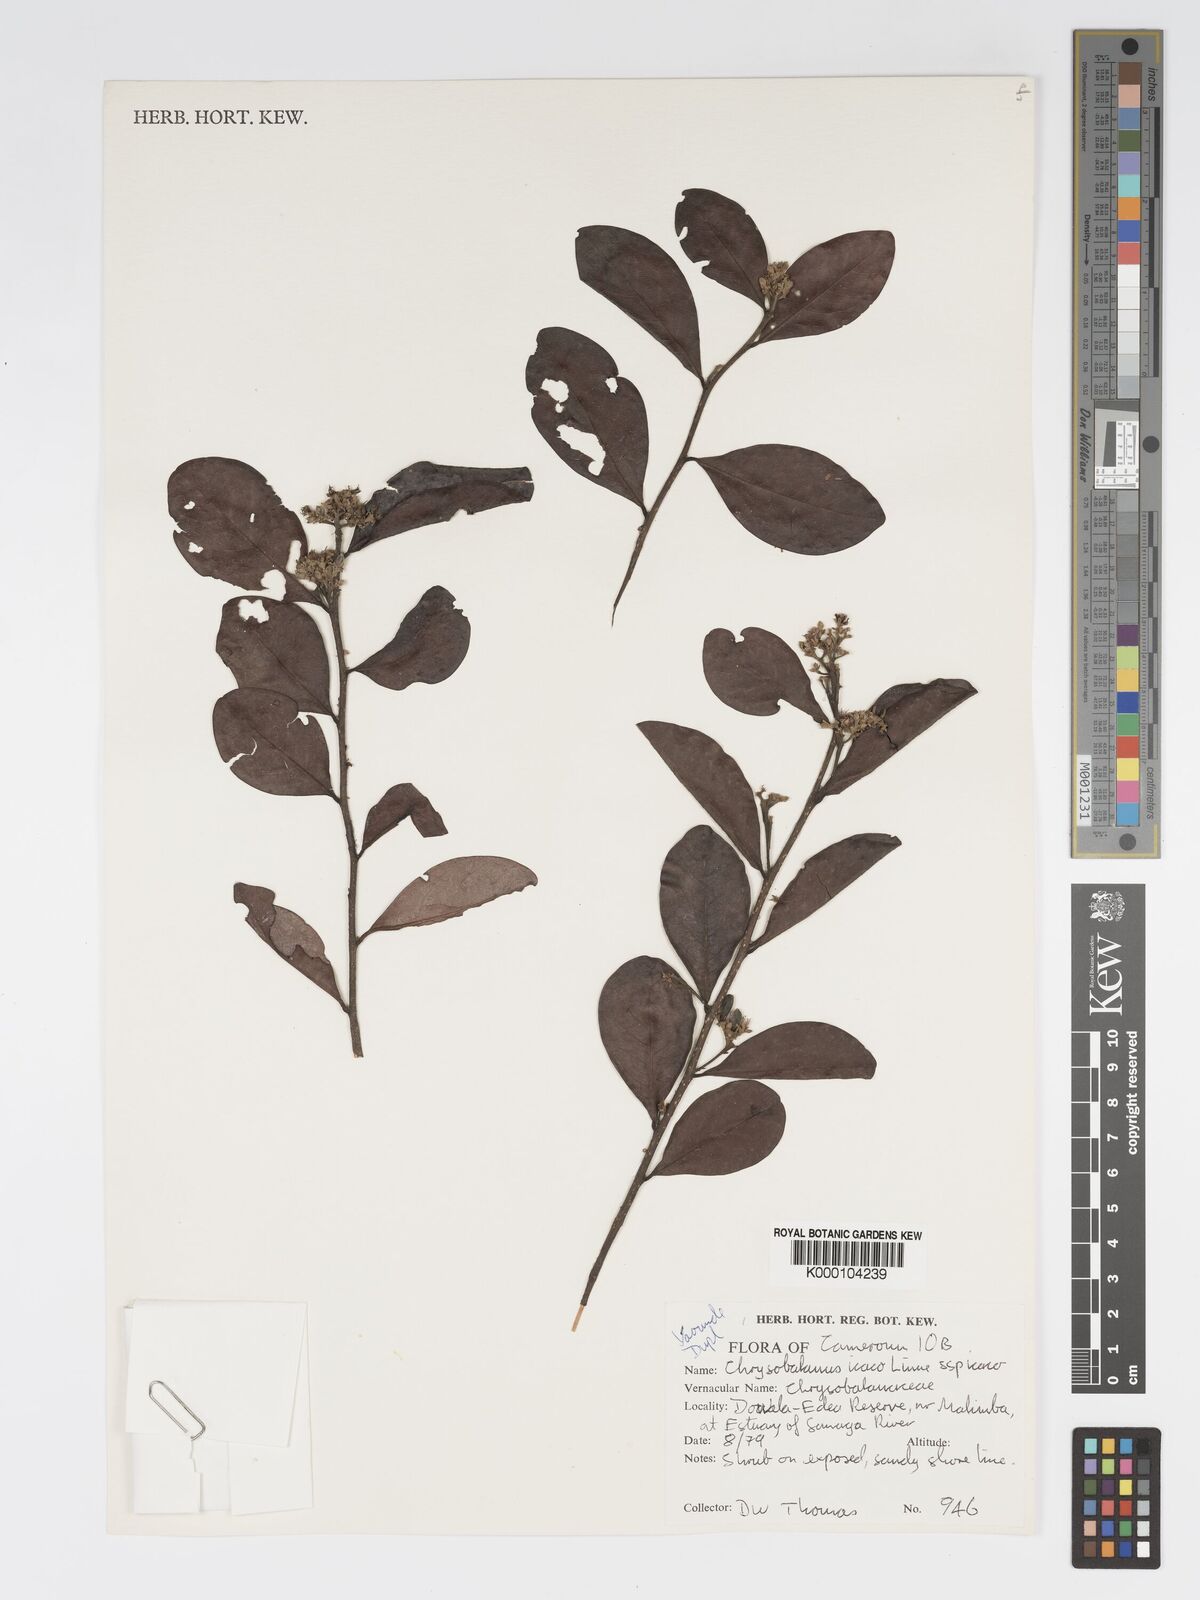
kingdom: Plantae
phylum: Tracheophyta
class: Magnoliopsida
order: Malpighiales
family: Chrysobalanaceae
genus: Chrysobalanus
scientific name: Chrysobalanus icaco
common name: Coco plum
